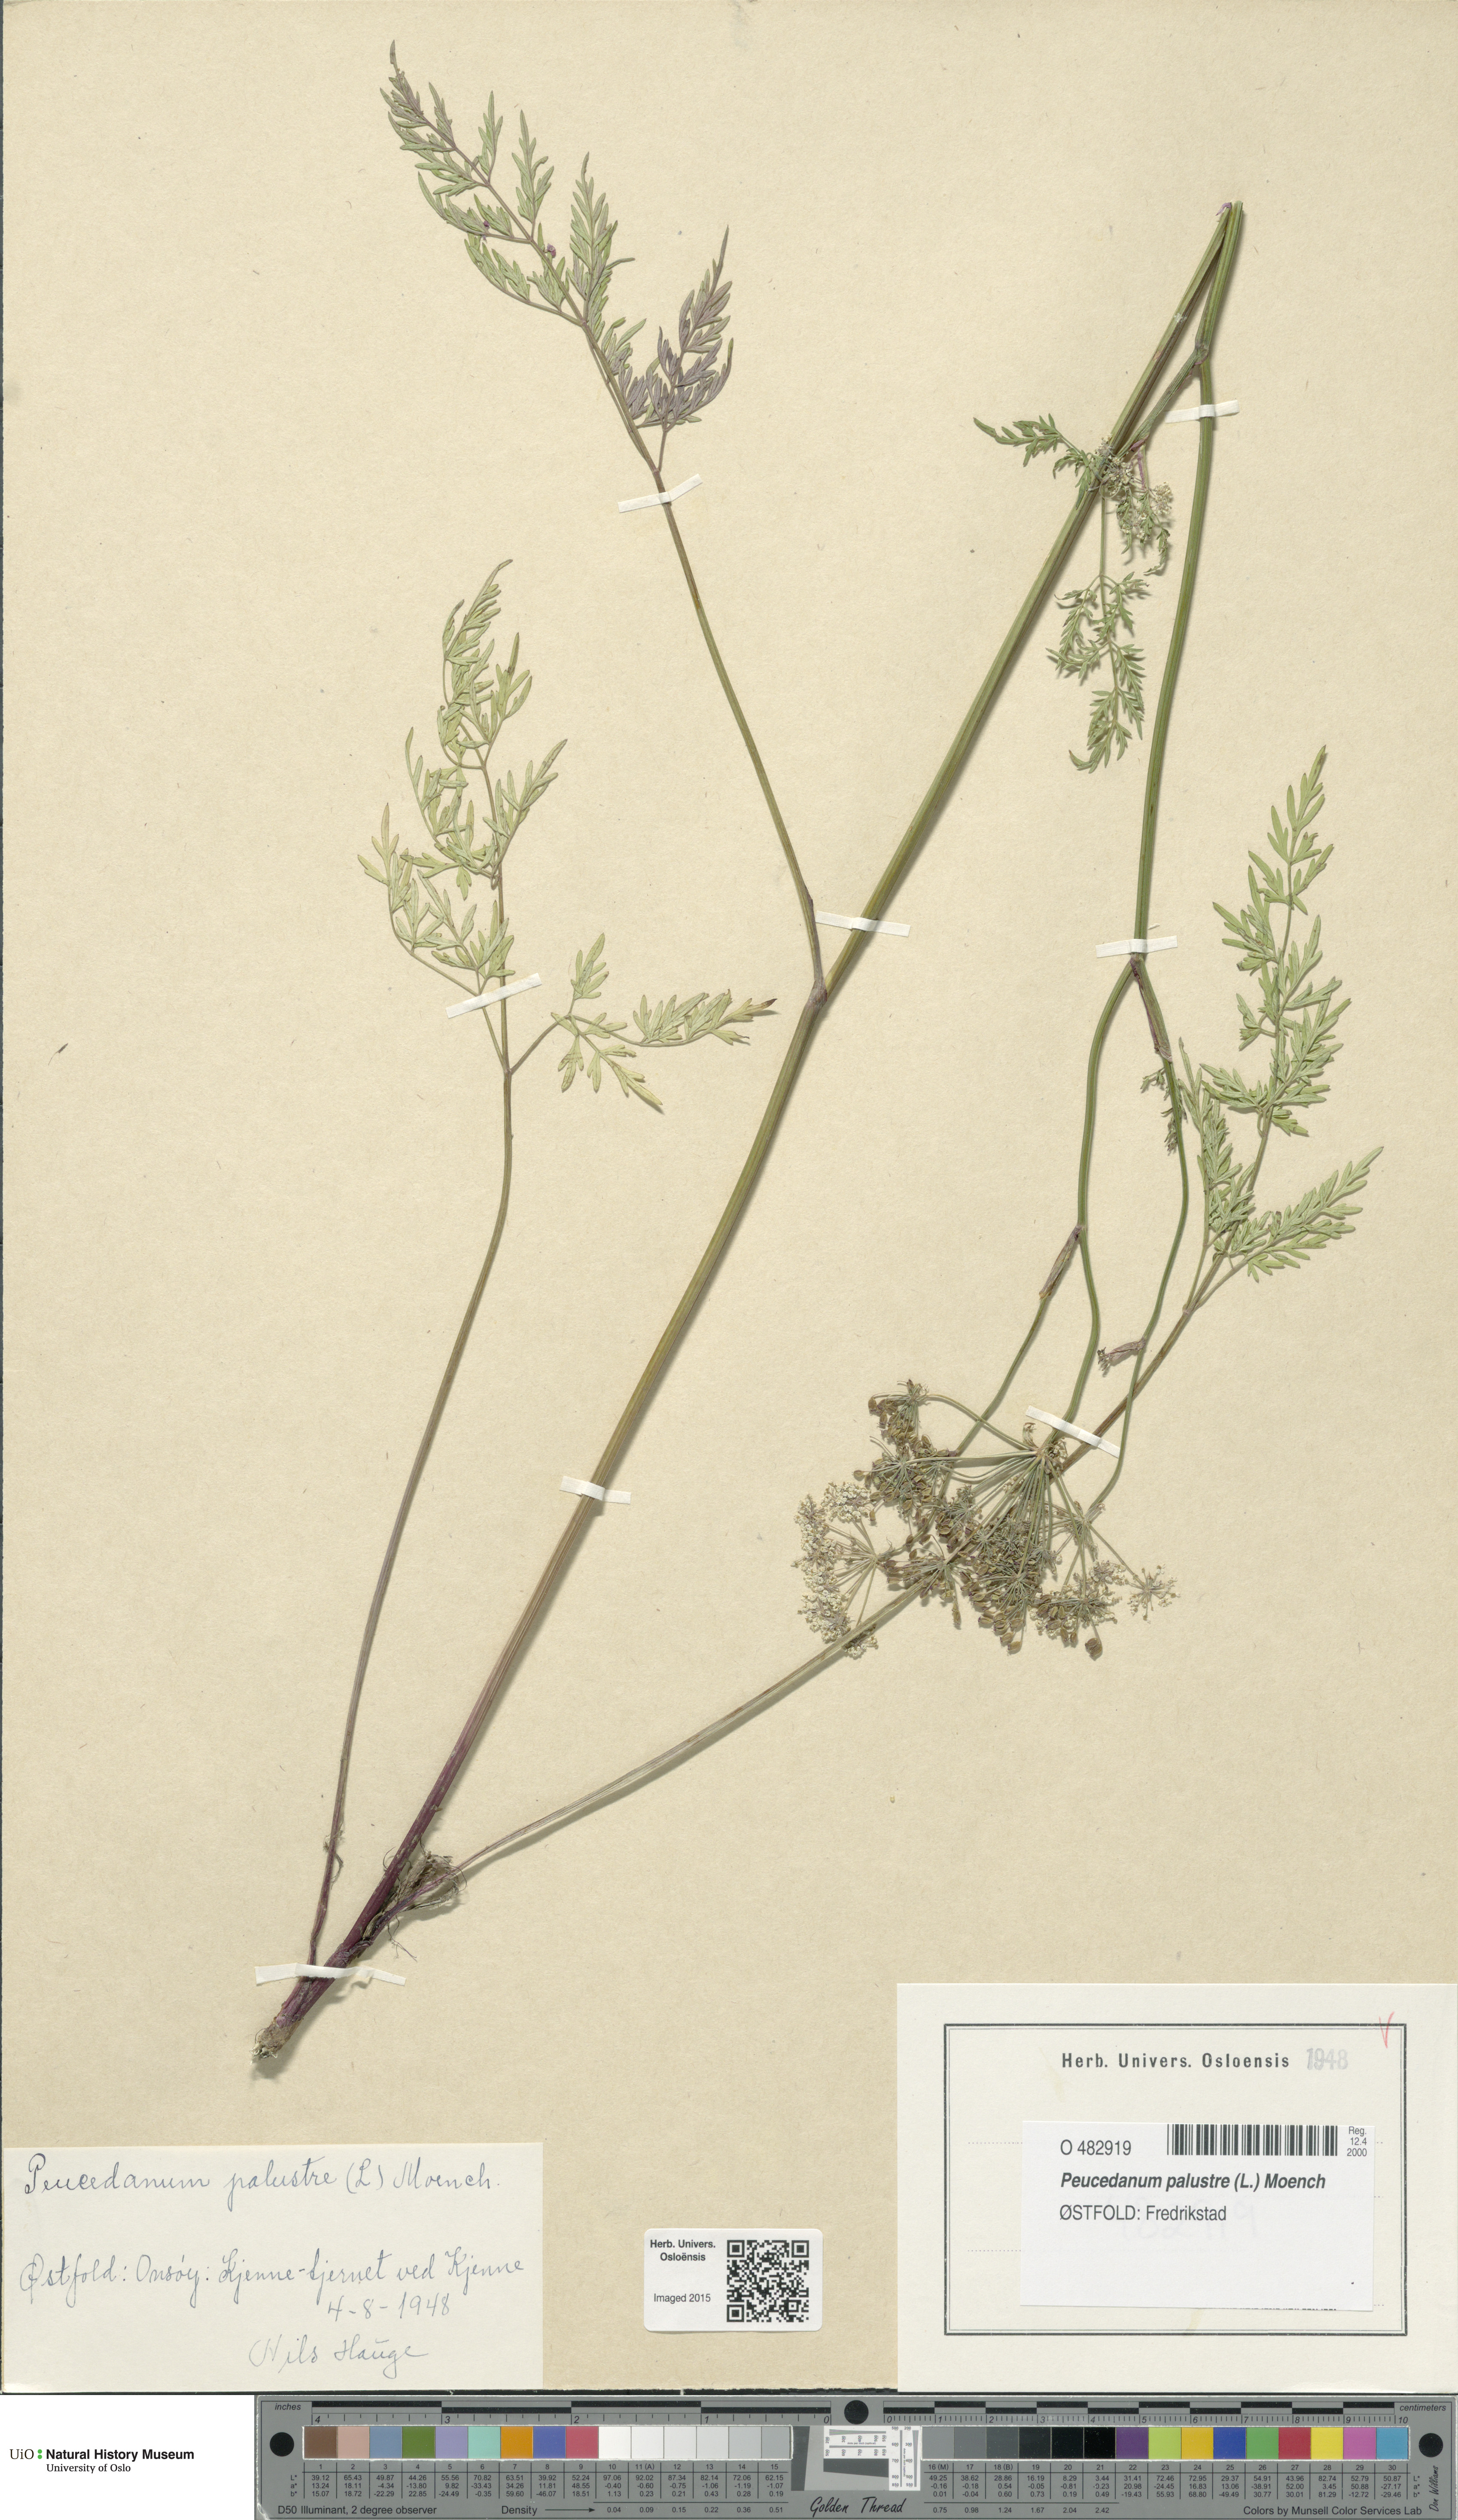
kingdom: Plantae
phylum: Tracheophyta
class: Magnoliopsida
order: Apiales
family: Apiaceae
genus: Thysselinum
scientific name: Thysselinum palustre
